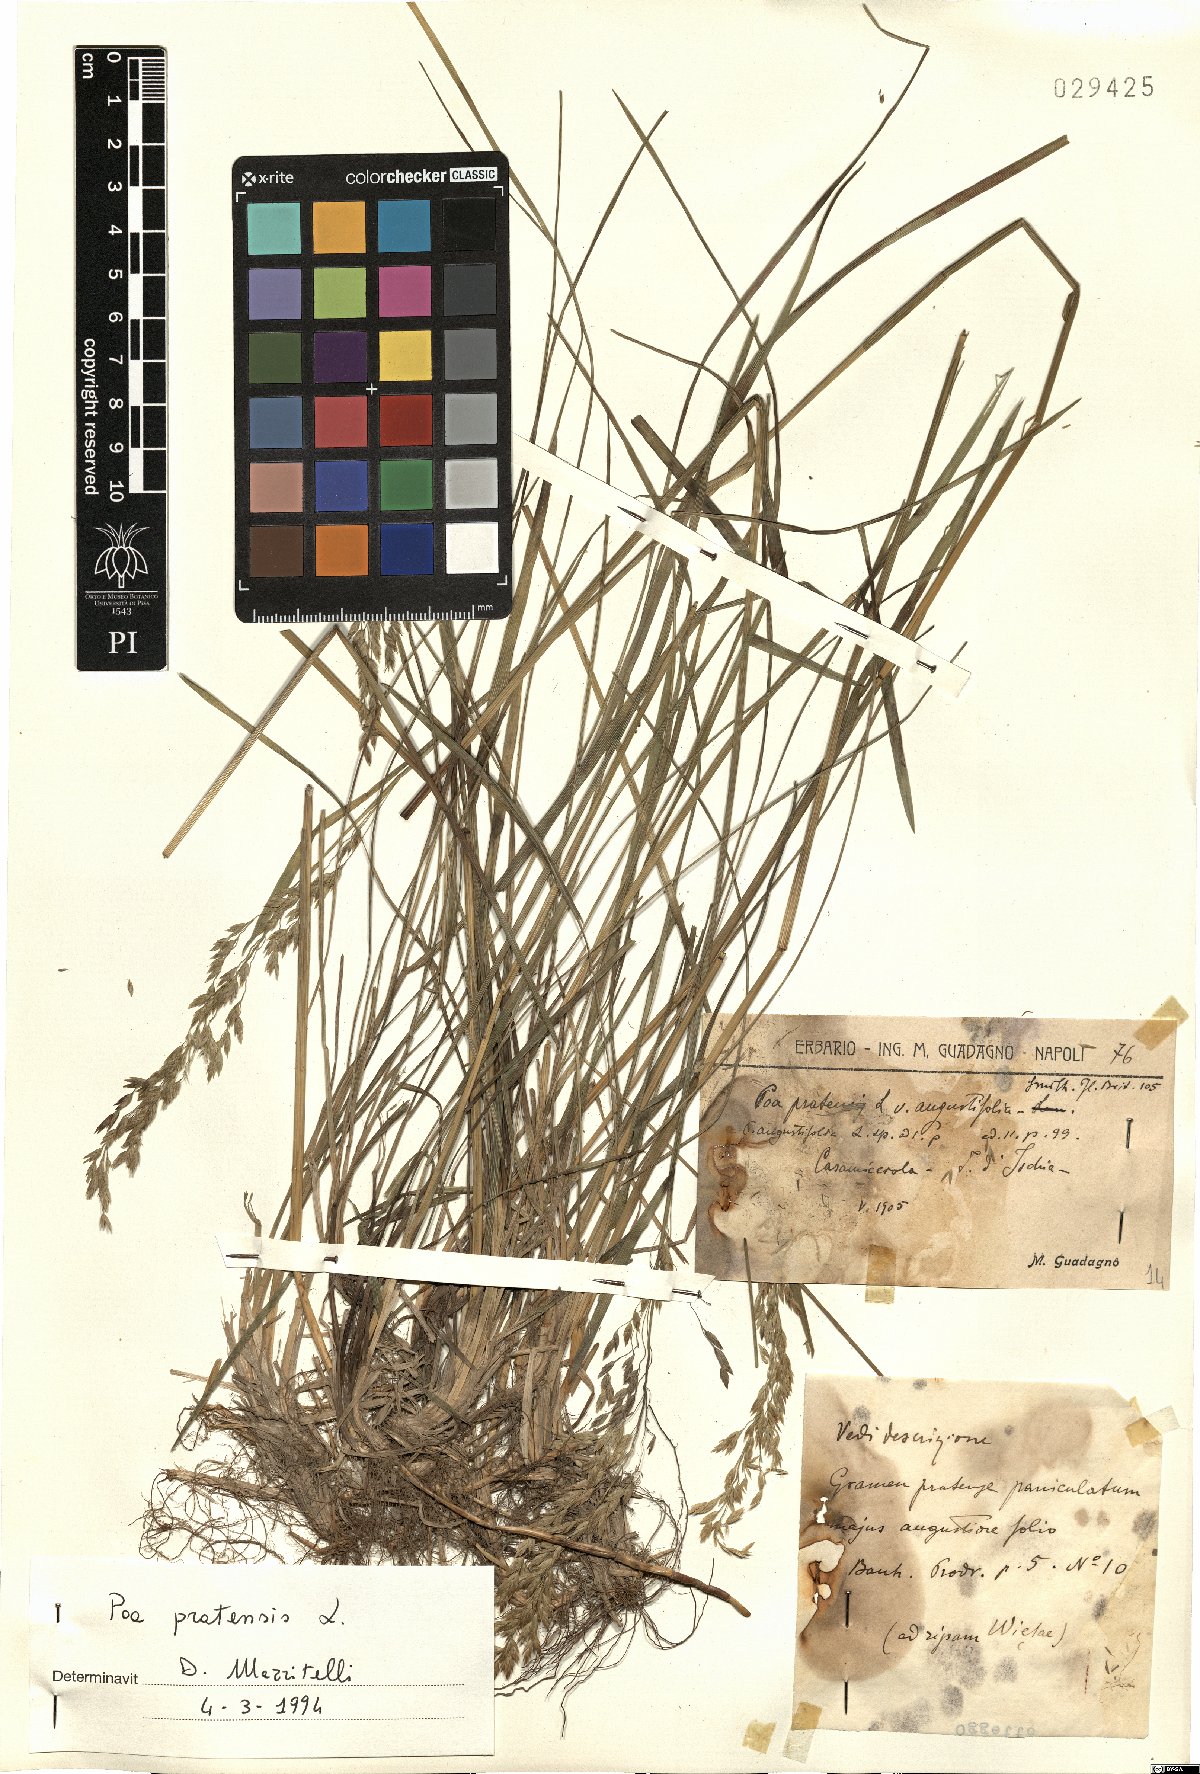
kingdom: Plantae
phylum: Tracheophyta
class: Liliopsida
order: Poales
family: Poaceae
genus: Poa
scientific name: Poa pratensis
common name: Kentucky bluegrass
